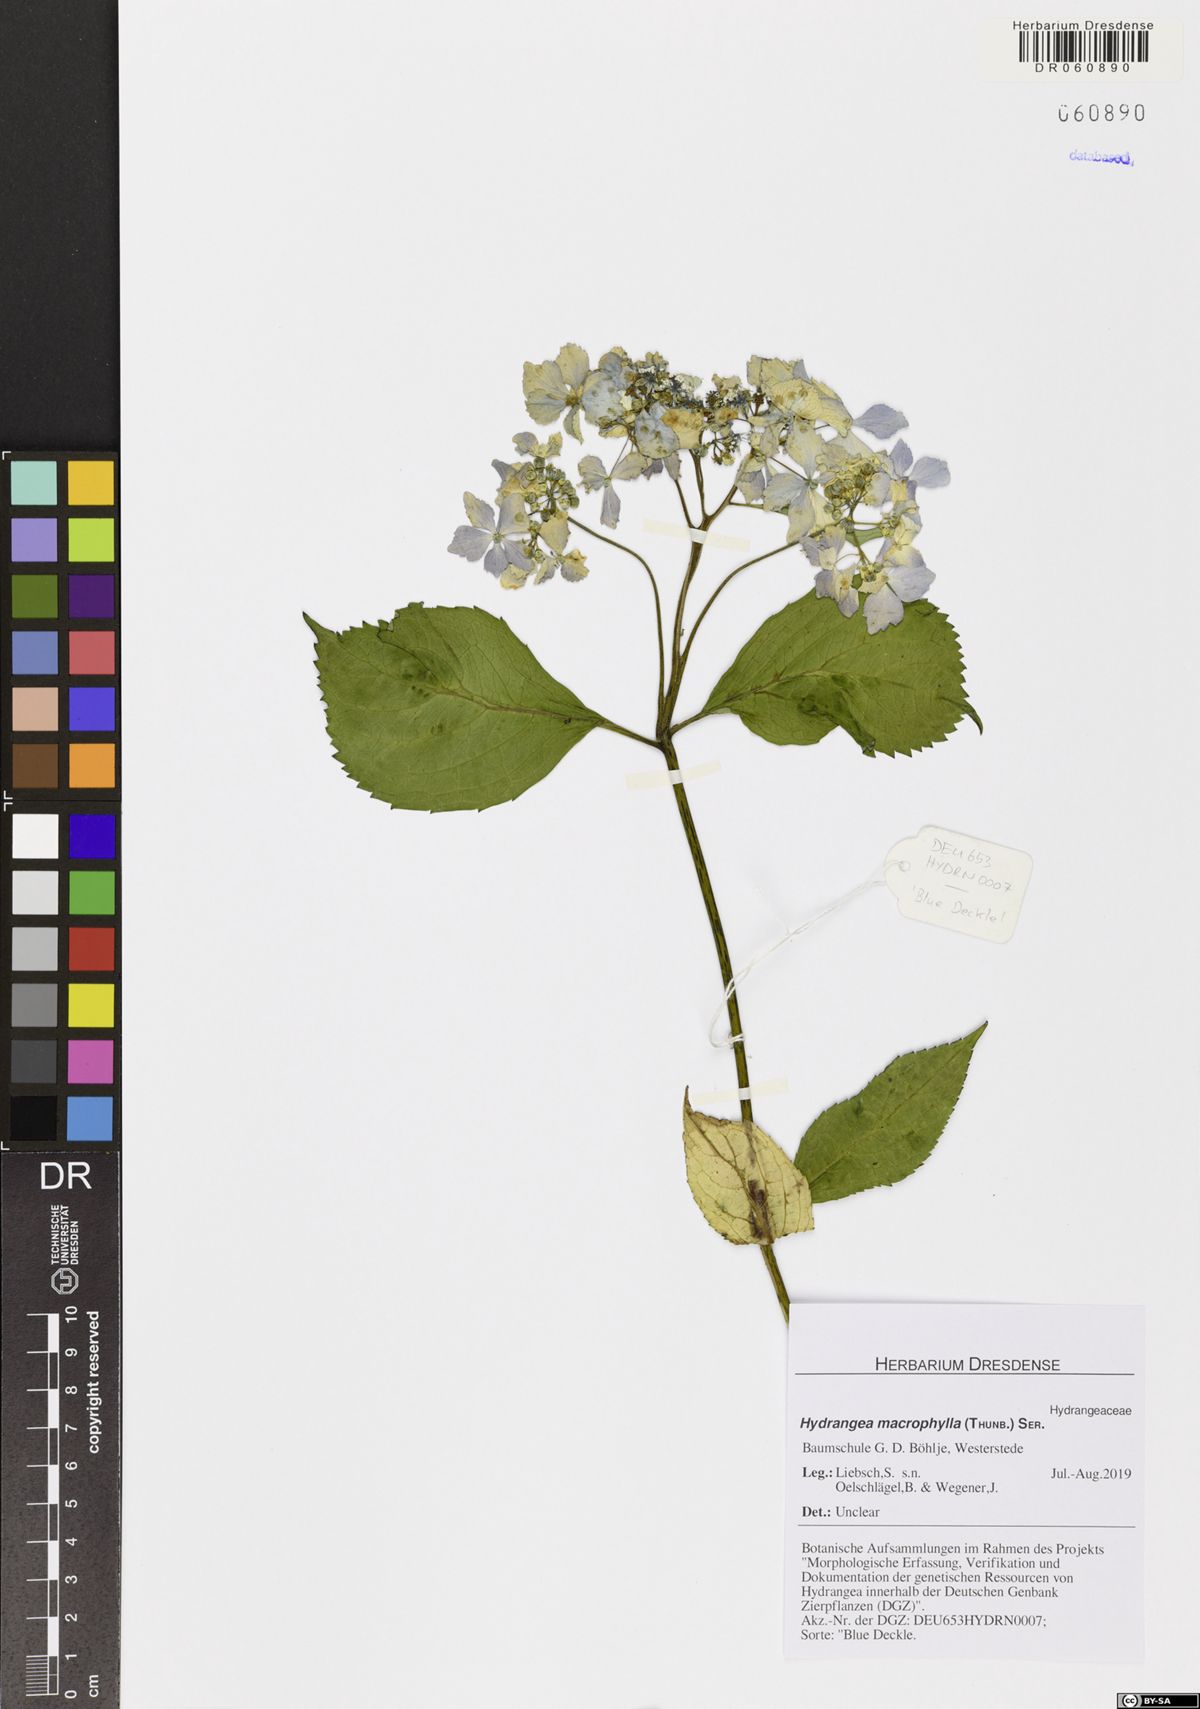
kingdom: Plantae
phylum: Tracheophyta
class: Magnoliopsida
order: Cornales
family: Hydrangeaceae
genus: Hydrangea
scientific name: Hydrangea macrophylla
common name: Hydrangea
